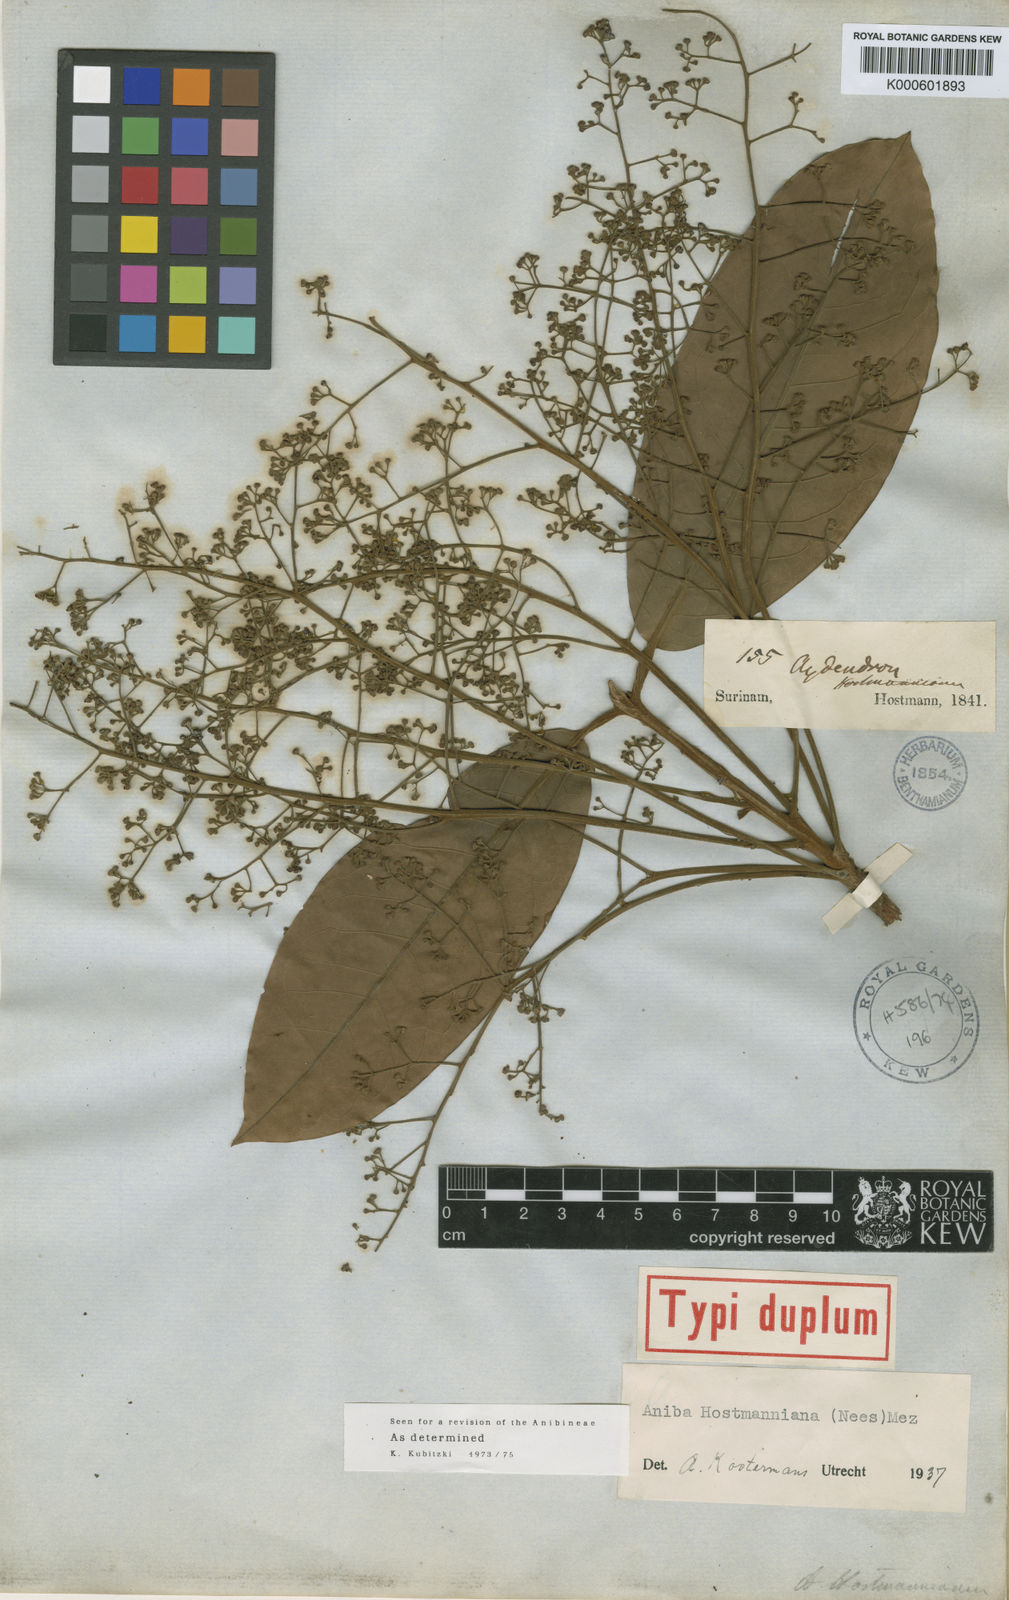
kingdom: Plantae
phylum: Tracheophyta
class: Magnoliopsida
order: Laurales
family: Lauraceae
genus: Aniba
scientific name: Aniba hostmanniana
